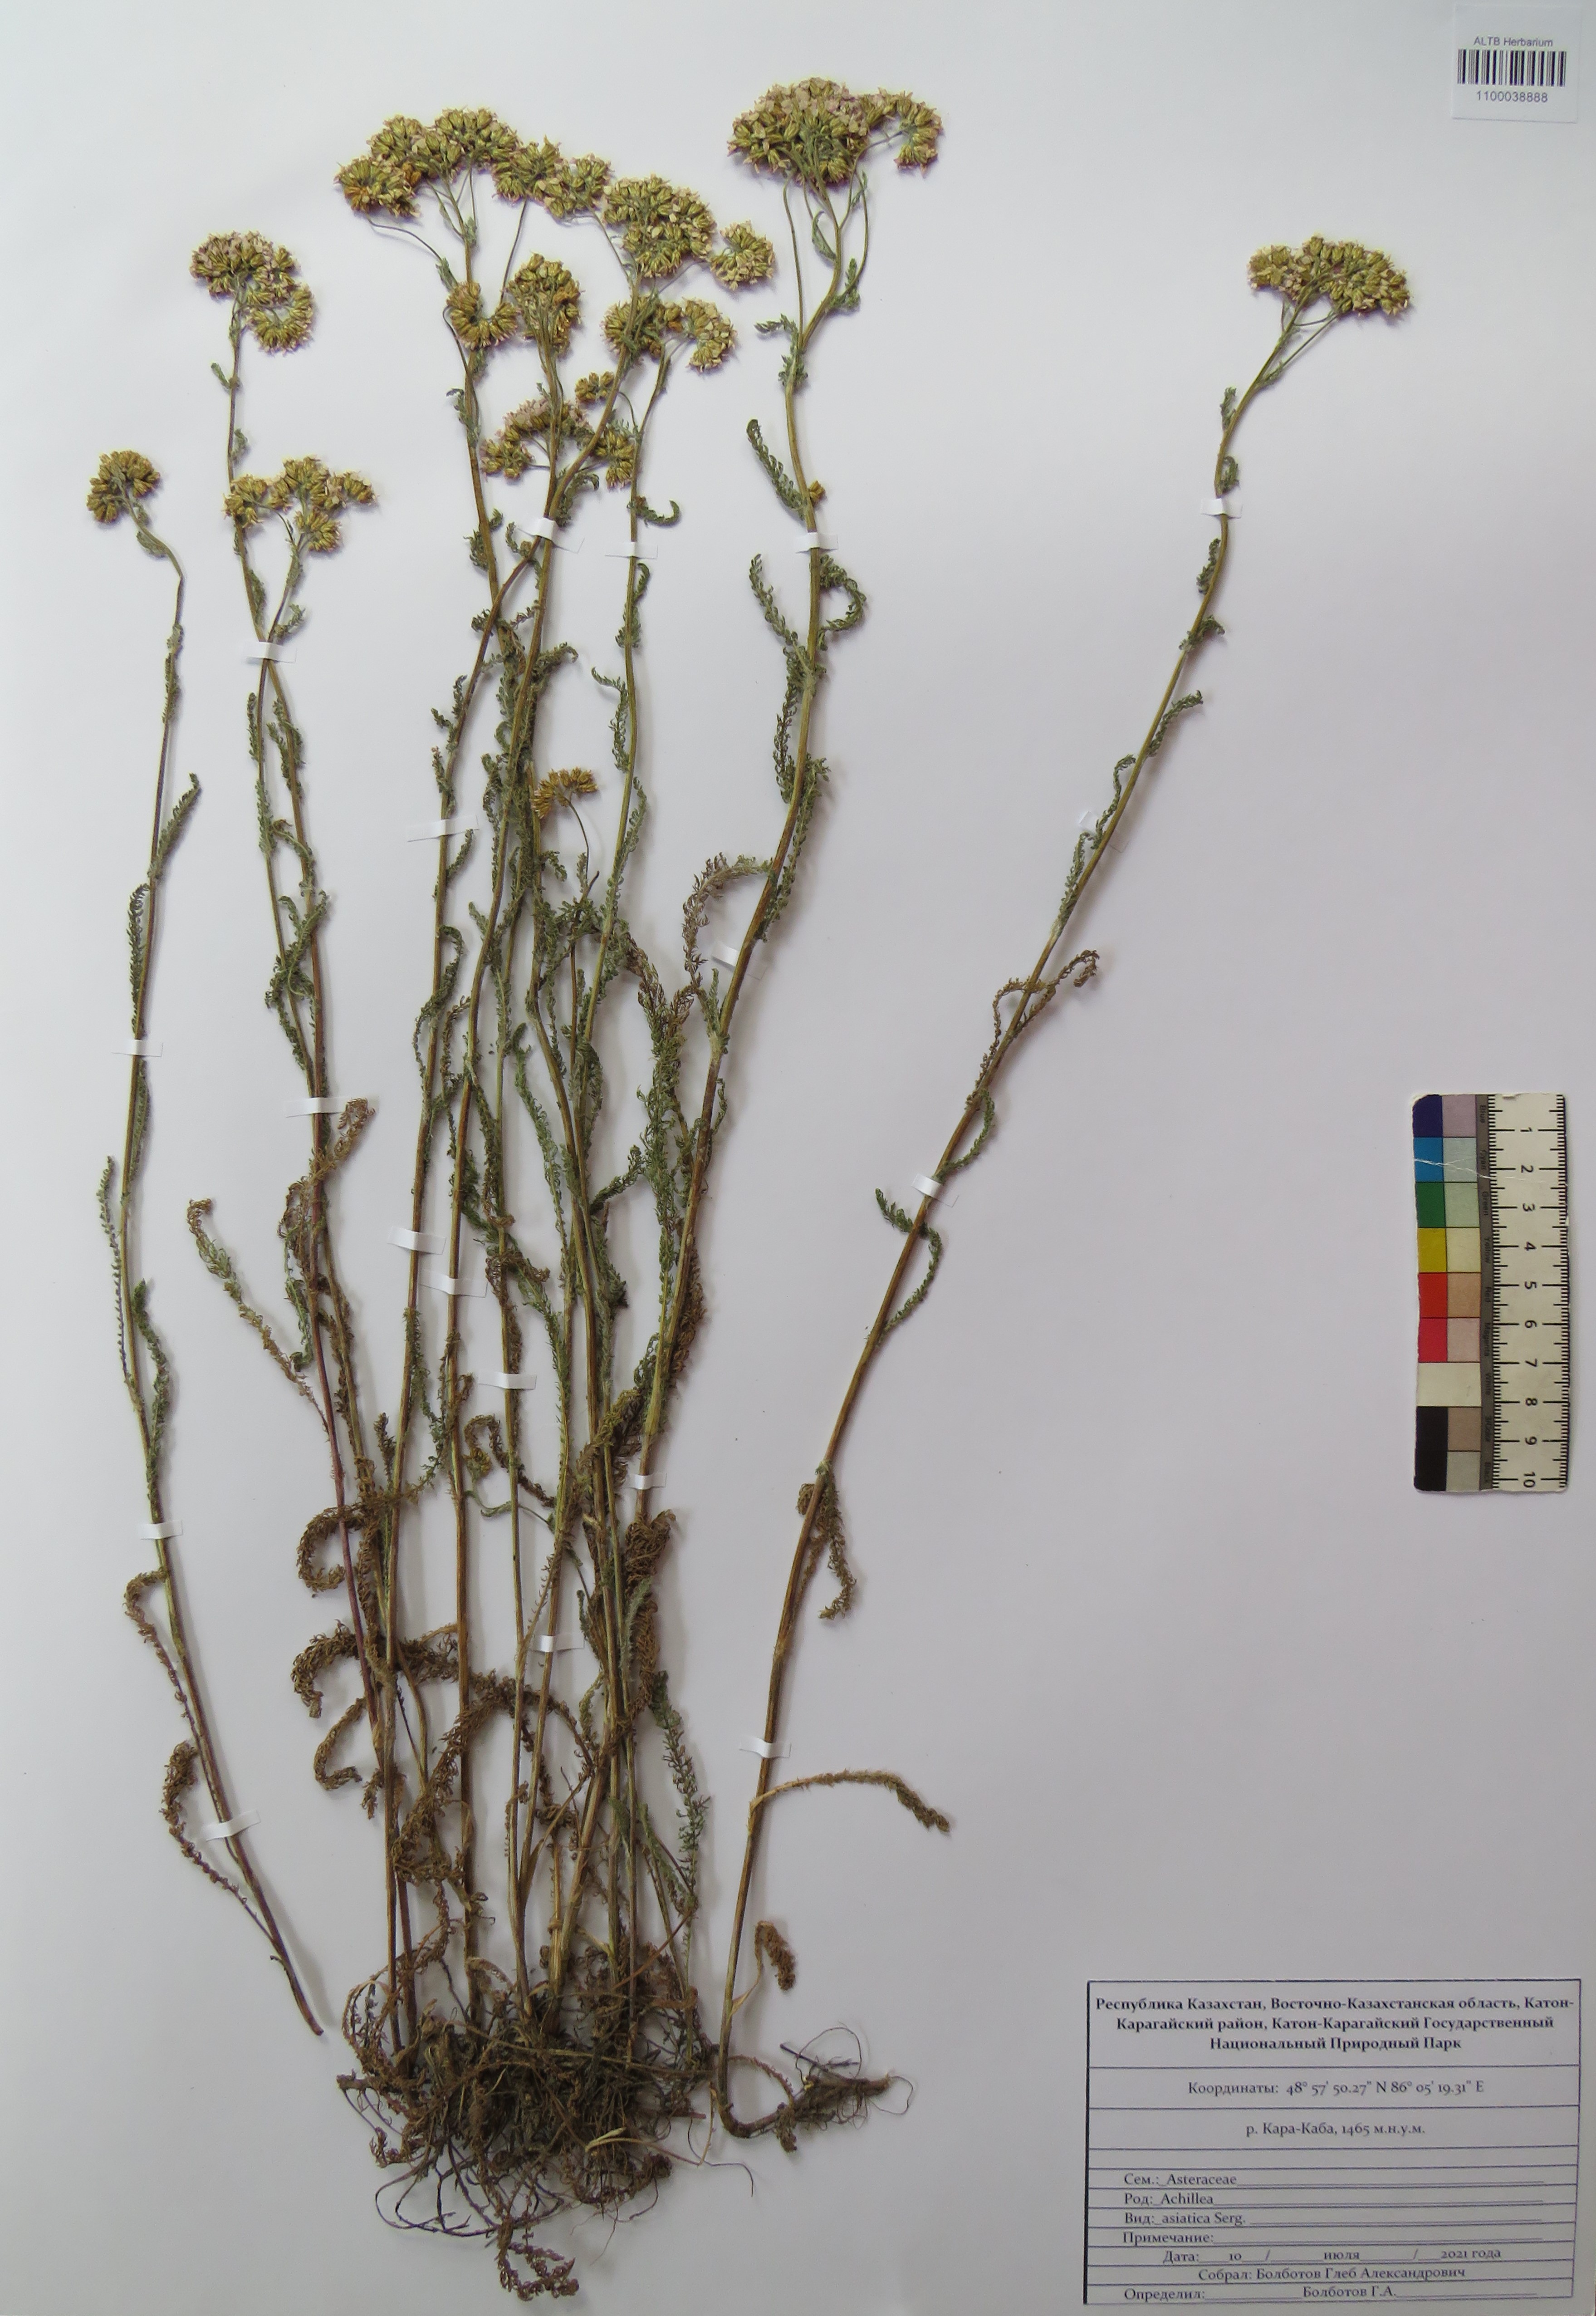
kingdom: Plantae
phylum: Tracheophyta
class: Magnoliopsida
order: Asterales
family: Asteraceae
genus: Achillea
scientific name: Achillea asiatica
